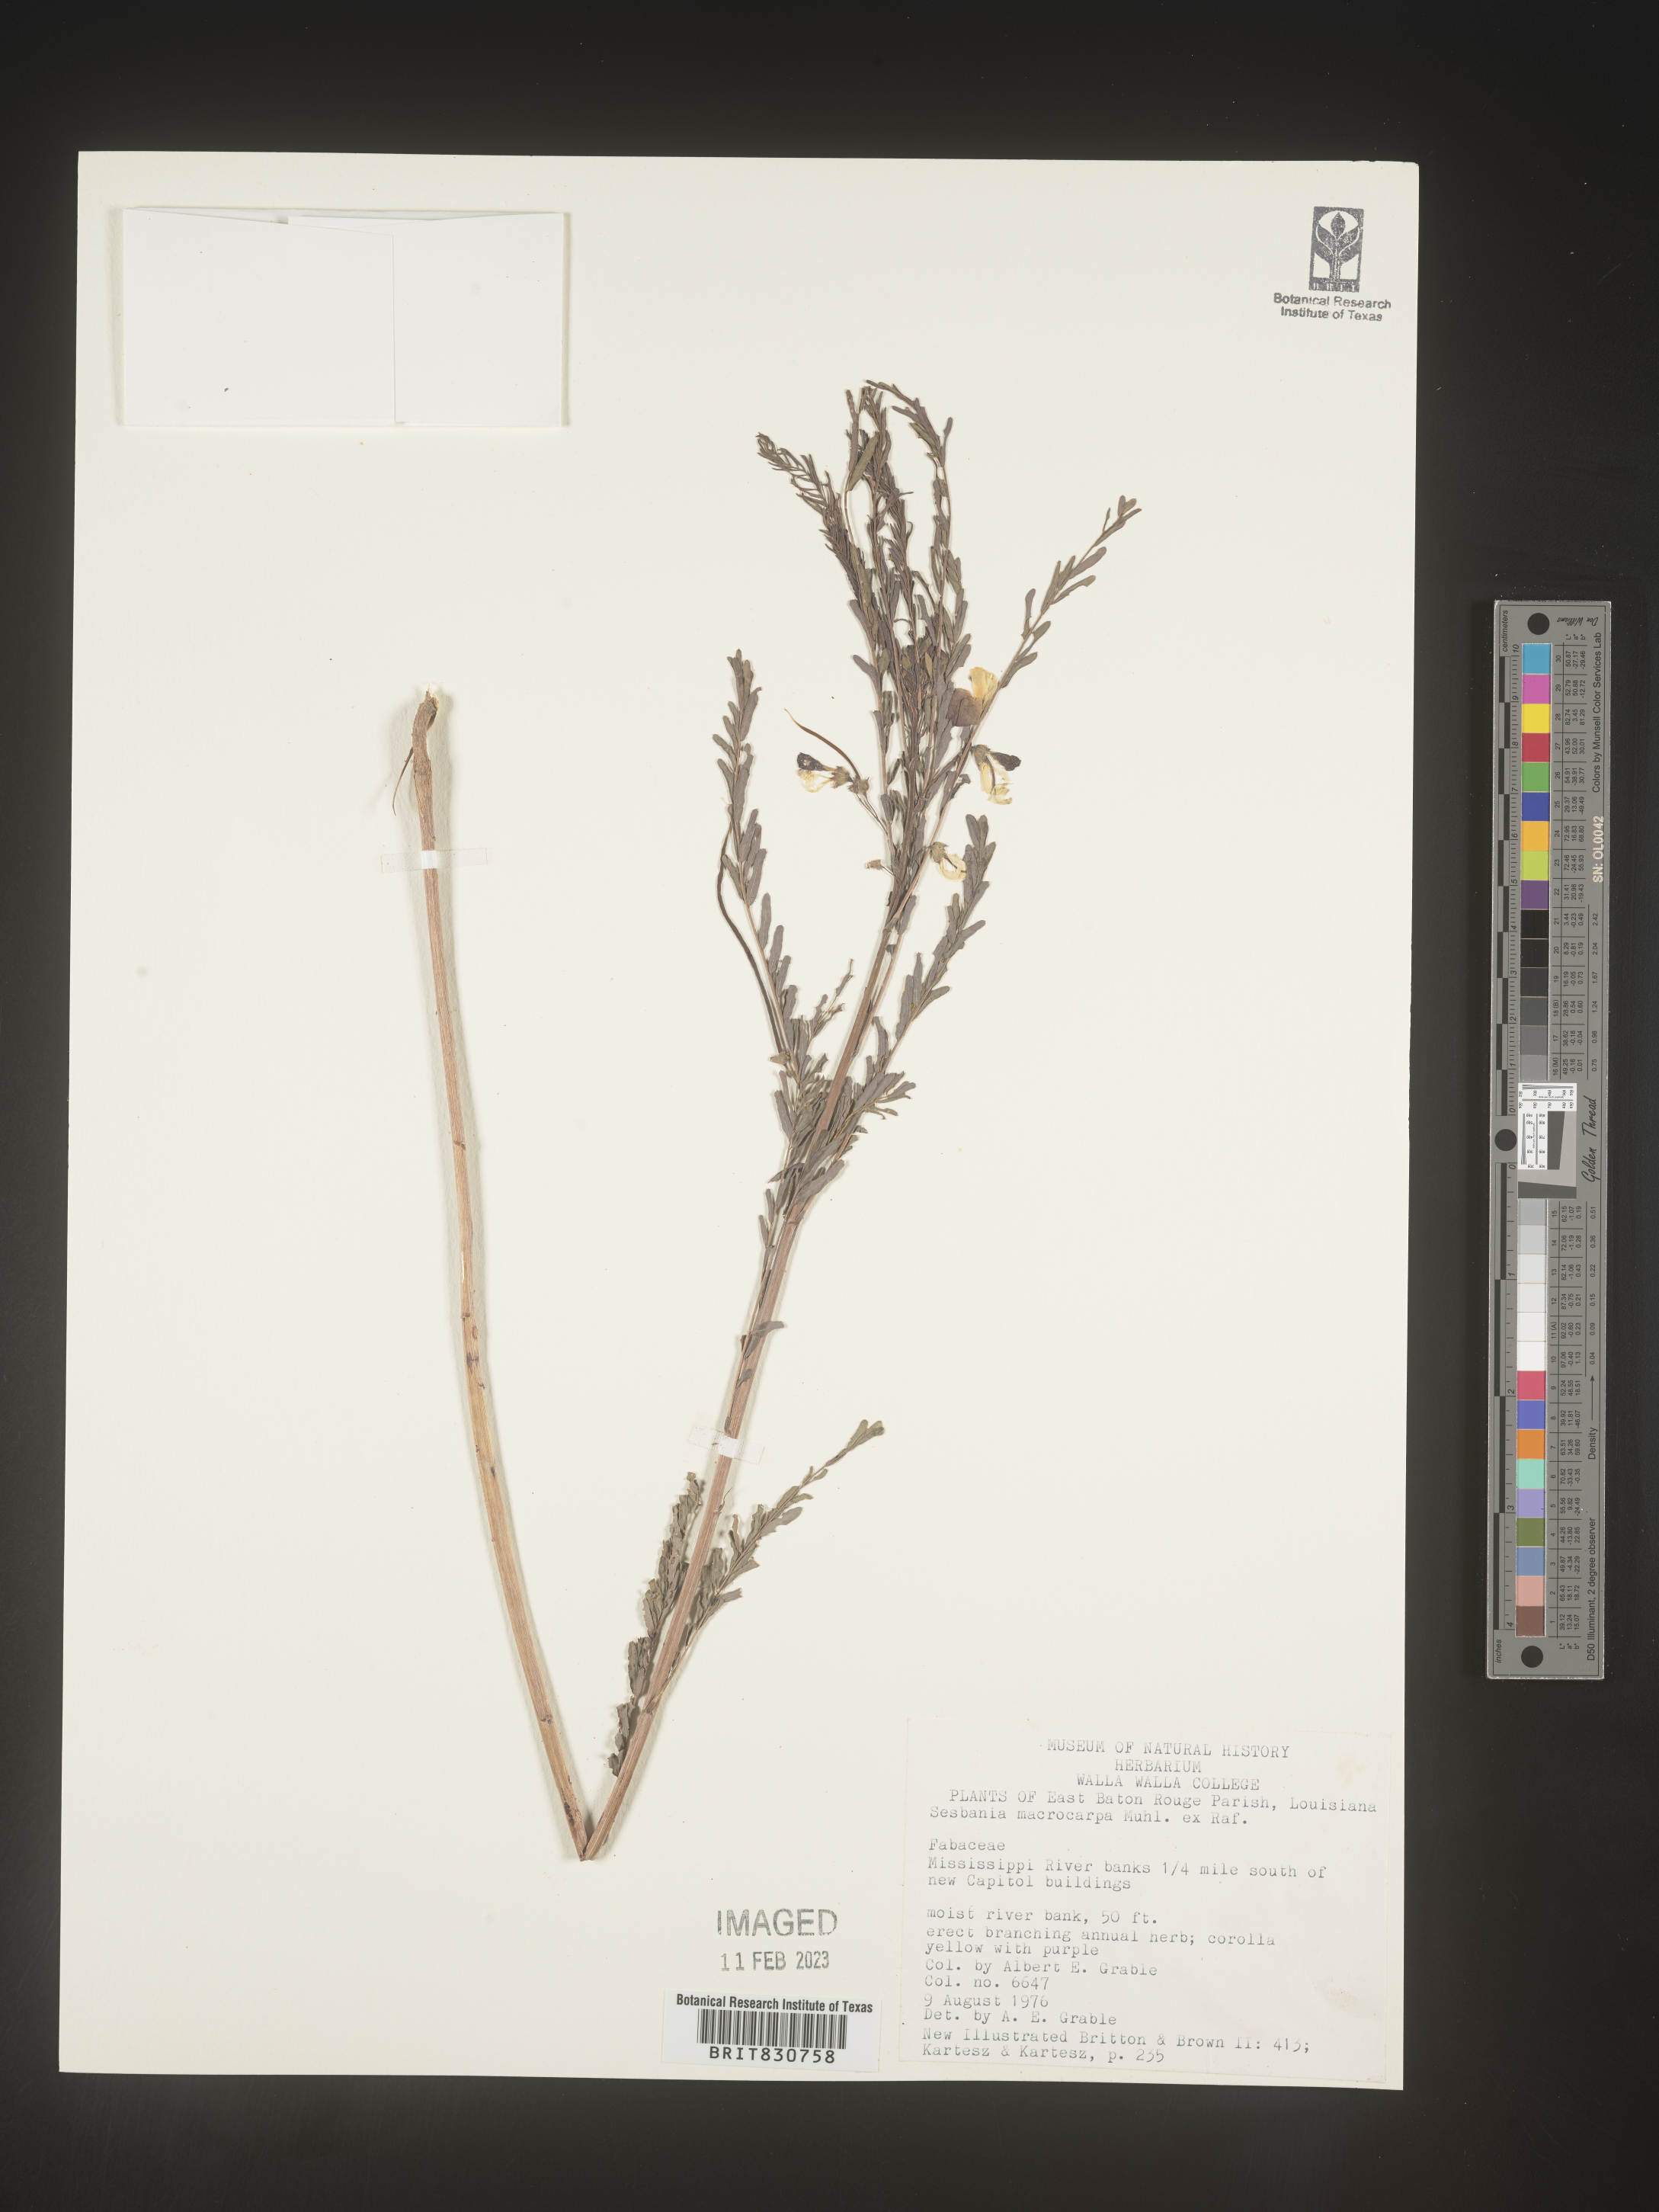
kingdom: Plantae
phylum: Tracheophyta
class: Magnoliopsida
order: Fabales
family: Fabaceae
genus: Sesbania
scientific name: Sesbania vesicaria
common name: Bagpod
